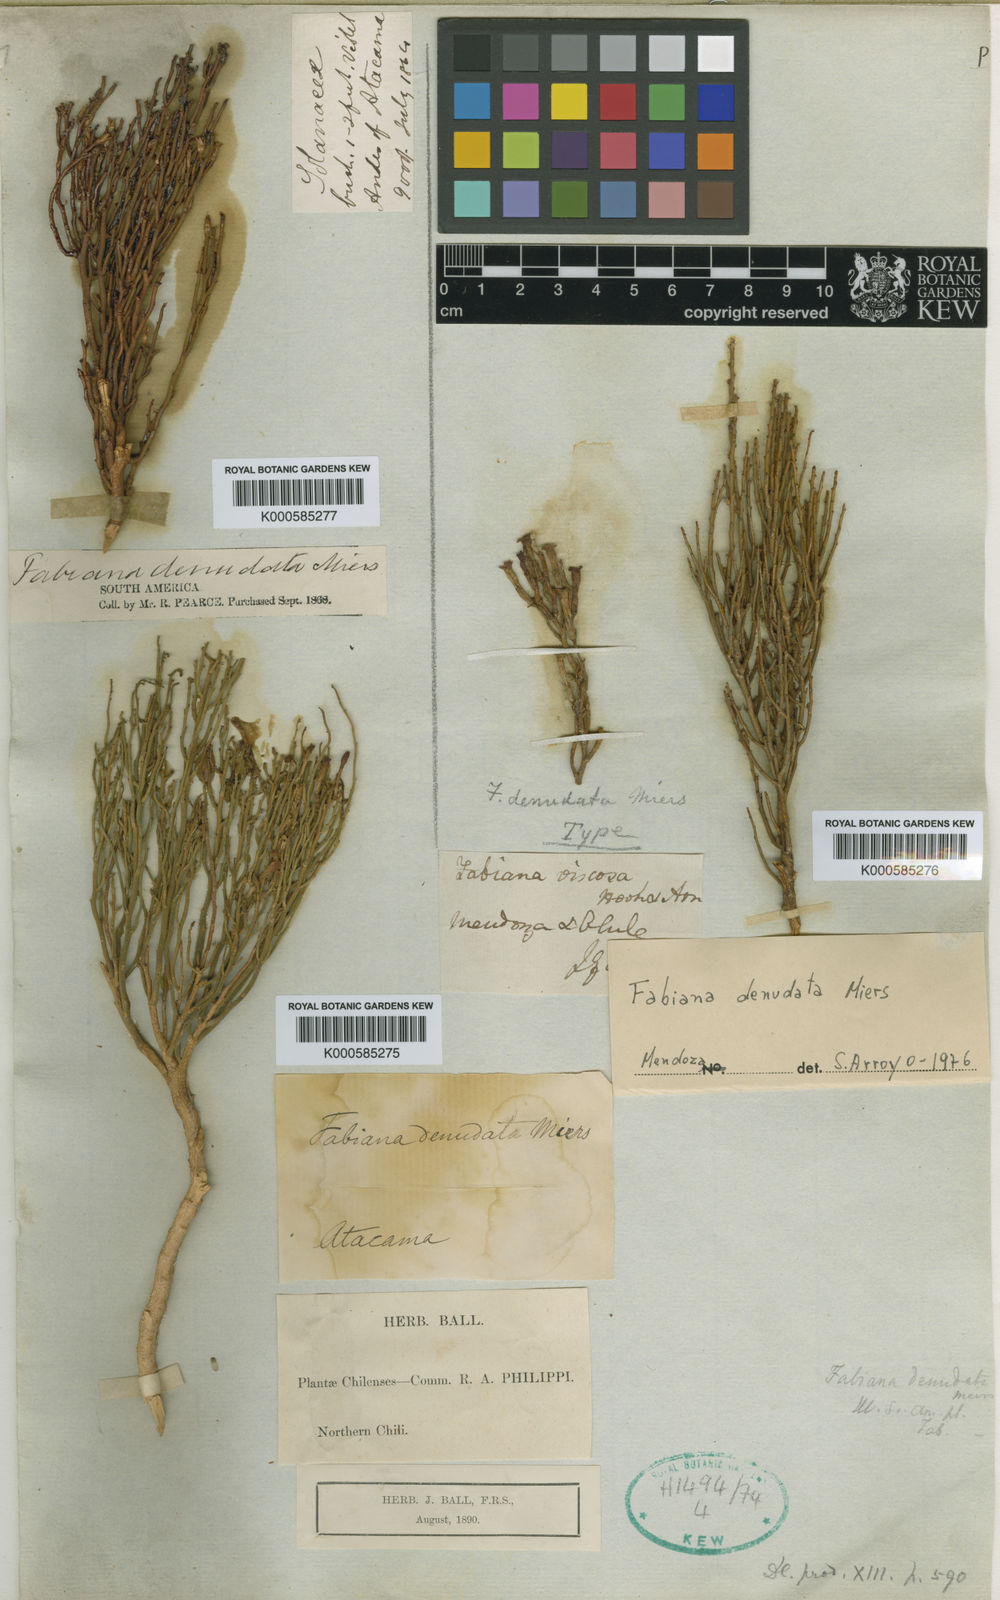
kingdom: Plantae
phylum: Tracheophyta
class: Magnoliopsida
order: Solanales
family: Solanaceae
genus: Fabiana
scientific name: Fabiana denudata
